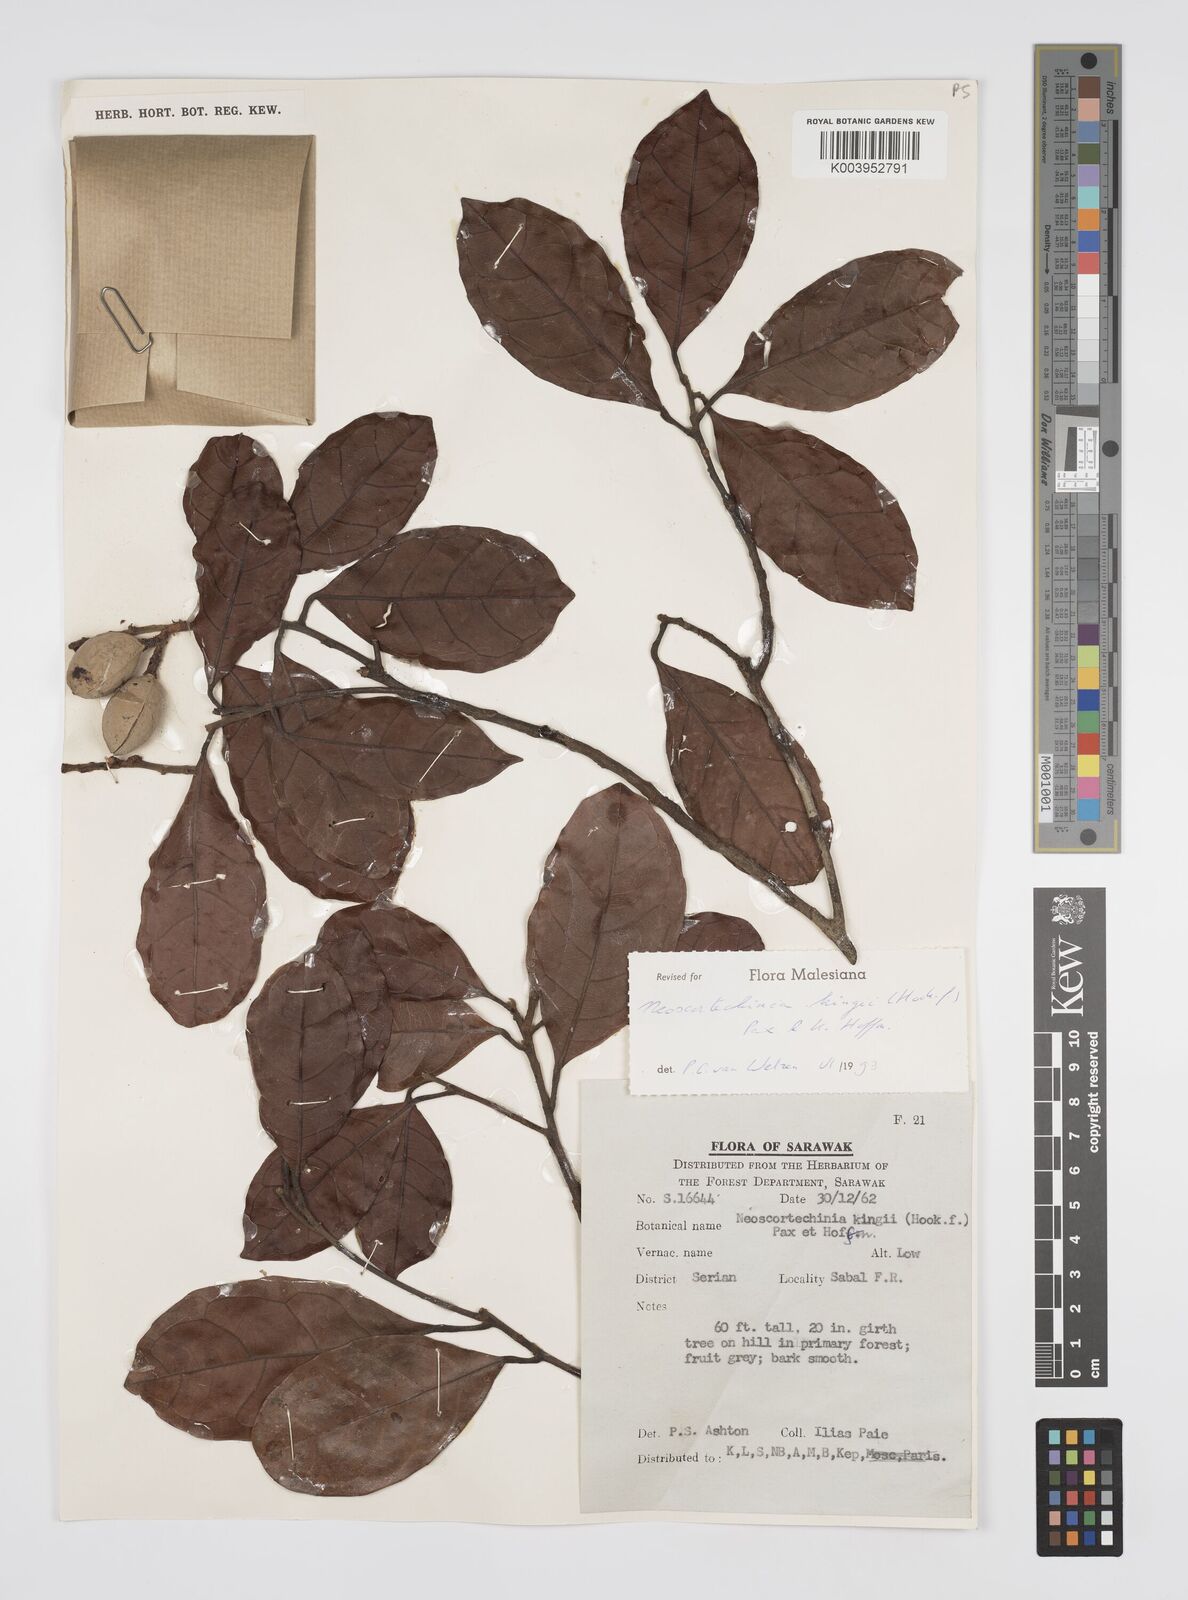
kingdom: Plantae
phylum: Tracheophyta
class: Magnoliopsida
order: Malpighiales
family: Euphorbiaceae
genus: Neoscortechinia
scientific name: Neoscortechinia kingii
